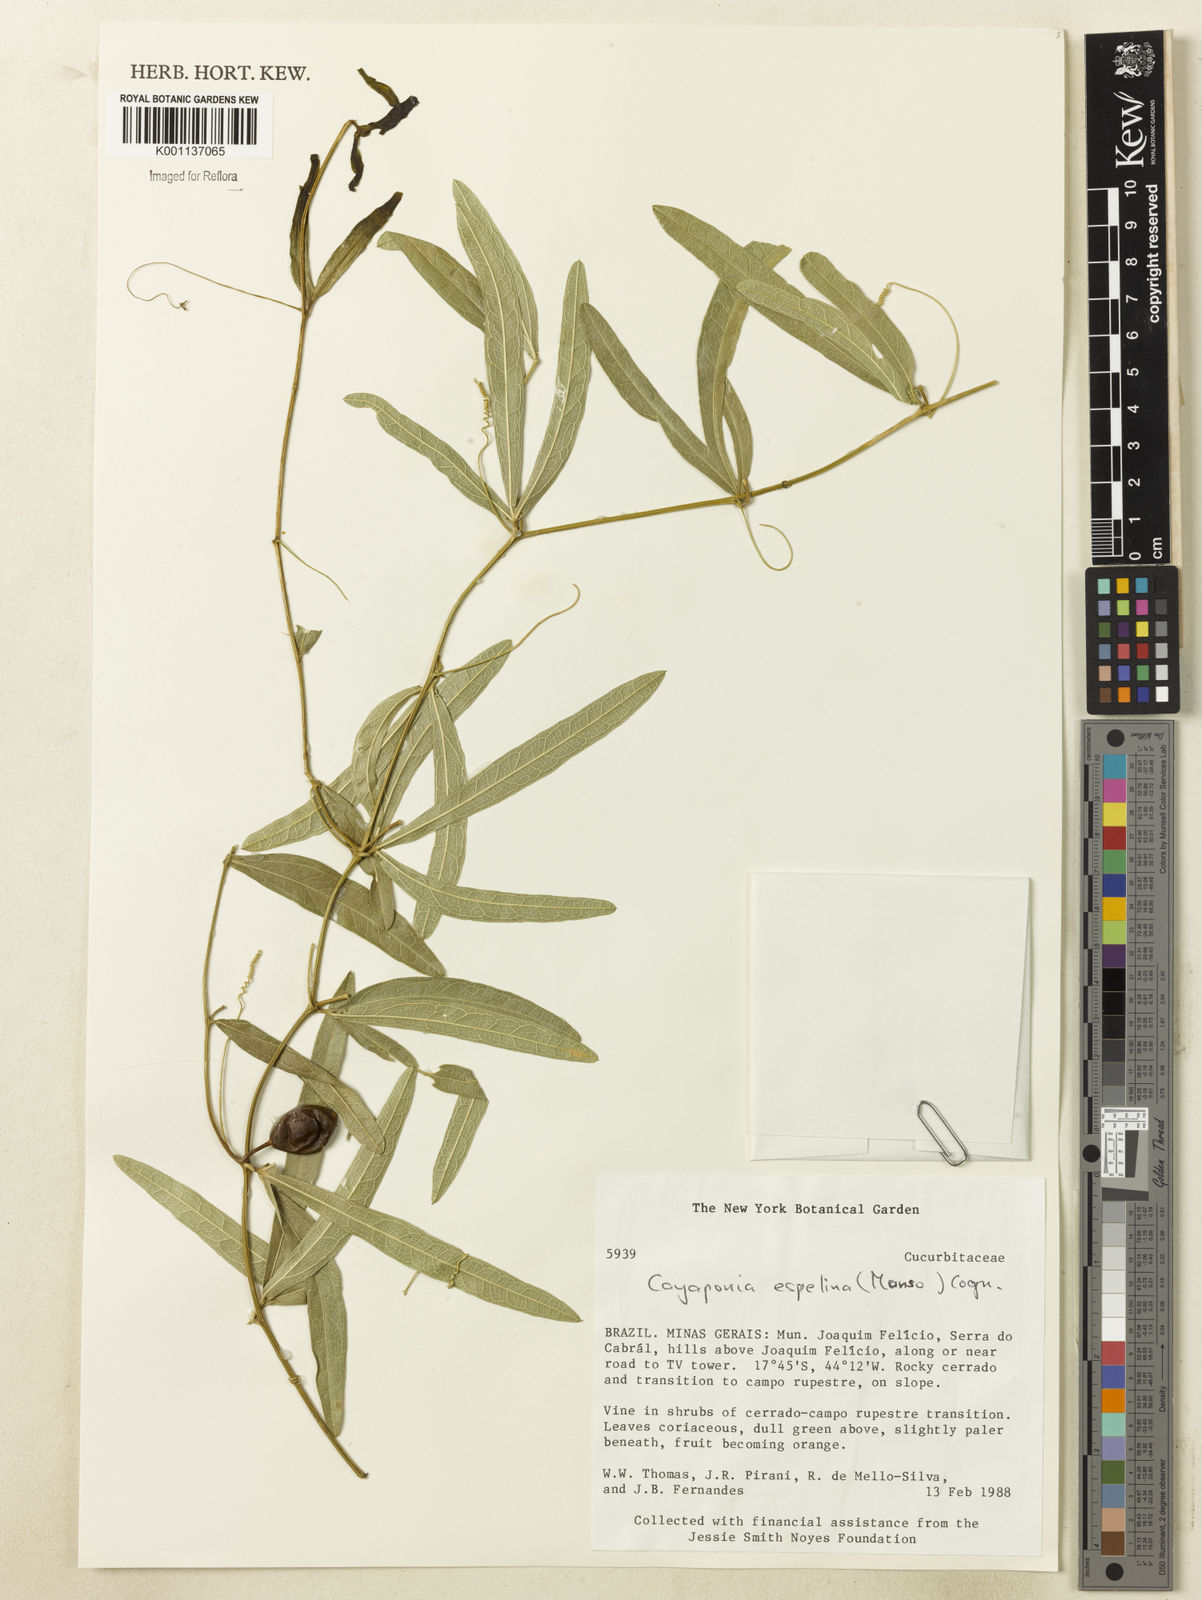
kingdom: Plantae
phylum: Tracheophyta
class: Magnoliopsida
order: Cucurbitales
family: Cucurbitaceae
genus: Cayaponia
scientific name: Cayaponia espelina
